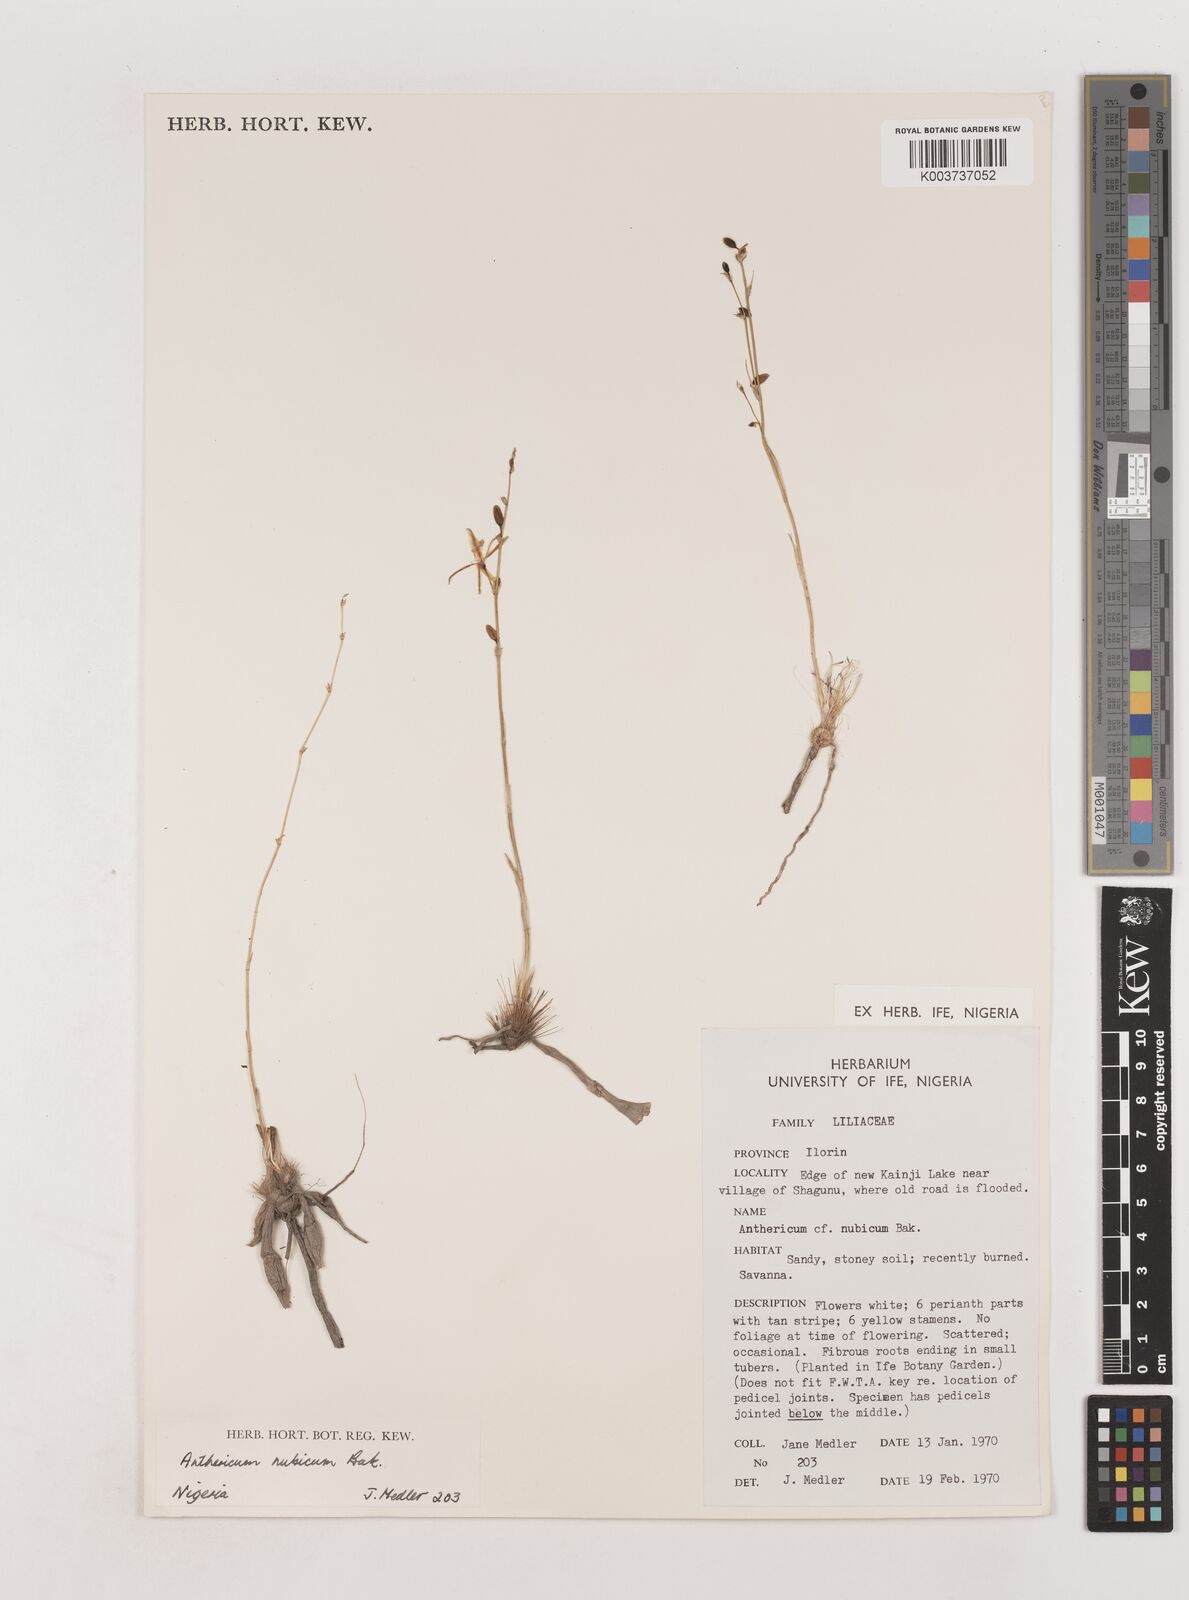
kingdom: Plantae
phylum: Tracheophyta
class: Liliopsida
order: Asparagales
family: Asparagaceae
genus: Chlorophytum
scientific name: Chlorophytum nubicum
